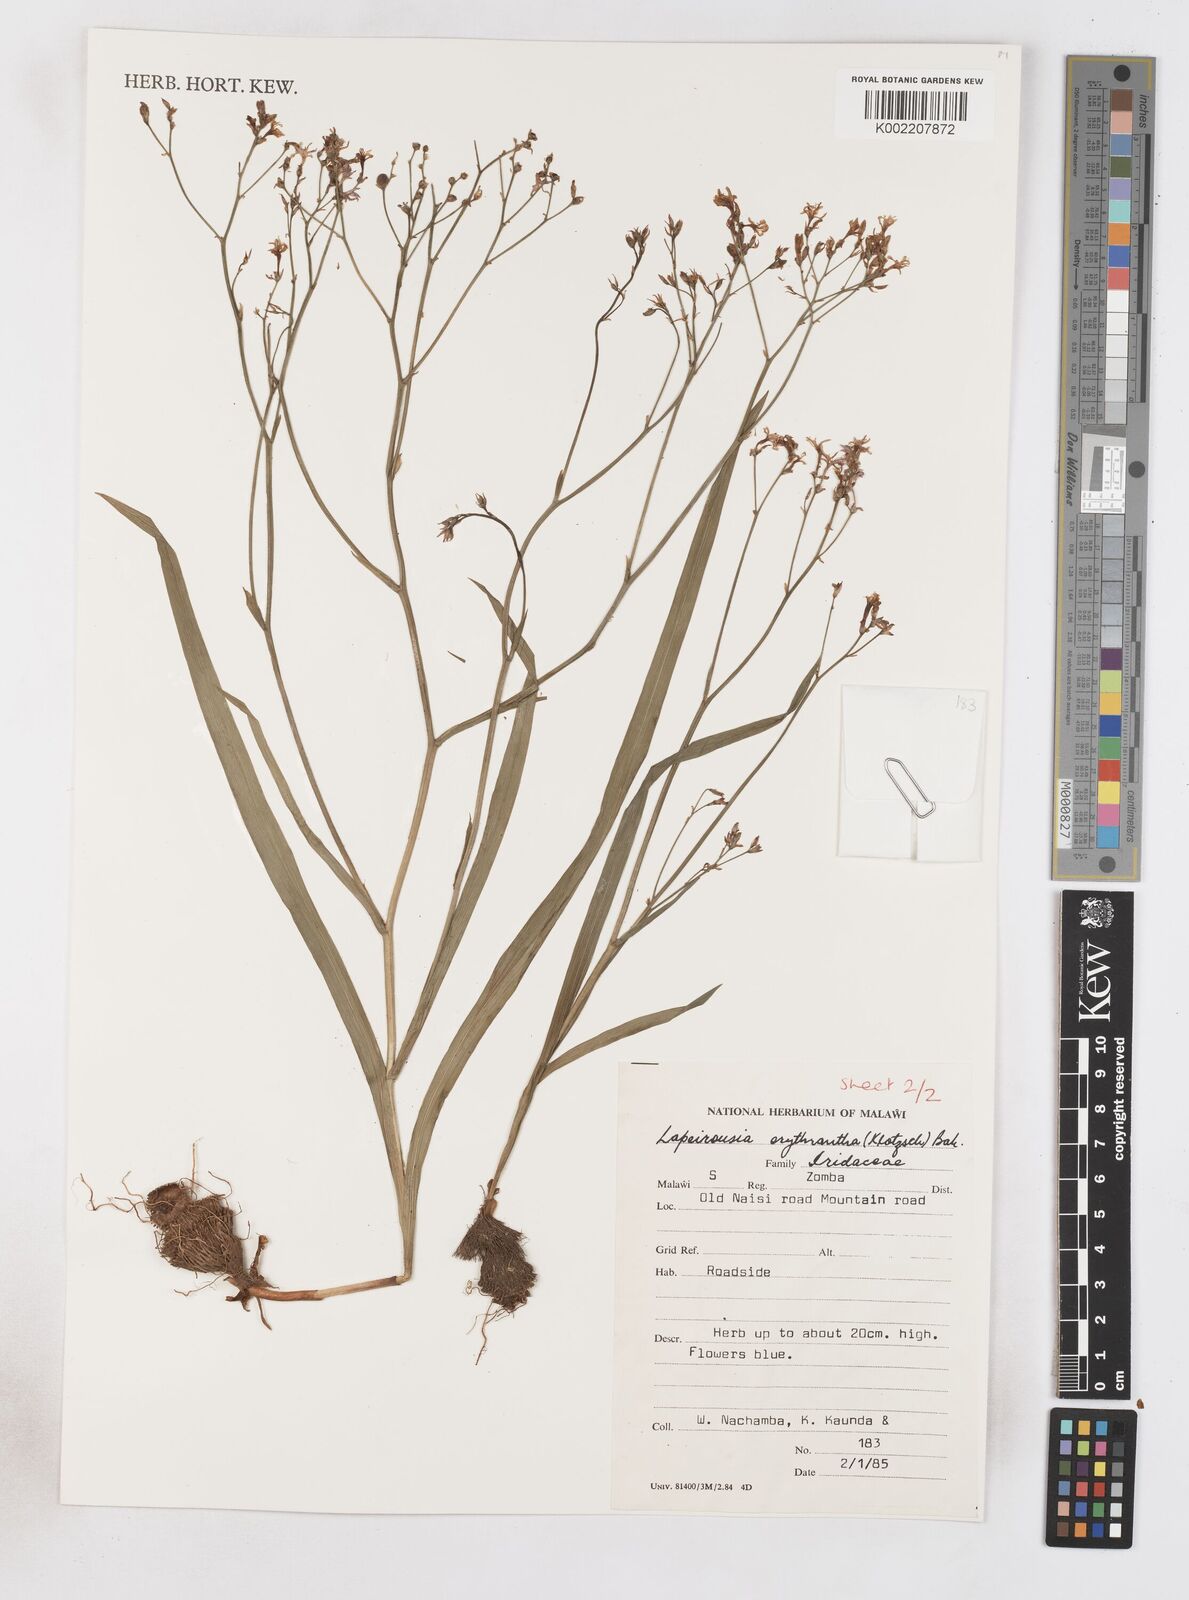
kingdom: Plantae
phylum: Tracheophyta
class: Liliopsida
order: Asparagales
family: Iridaceae
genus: Afrosolen
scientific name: Afrosolen erythranthus
